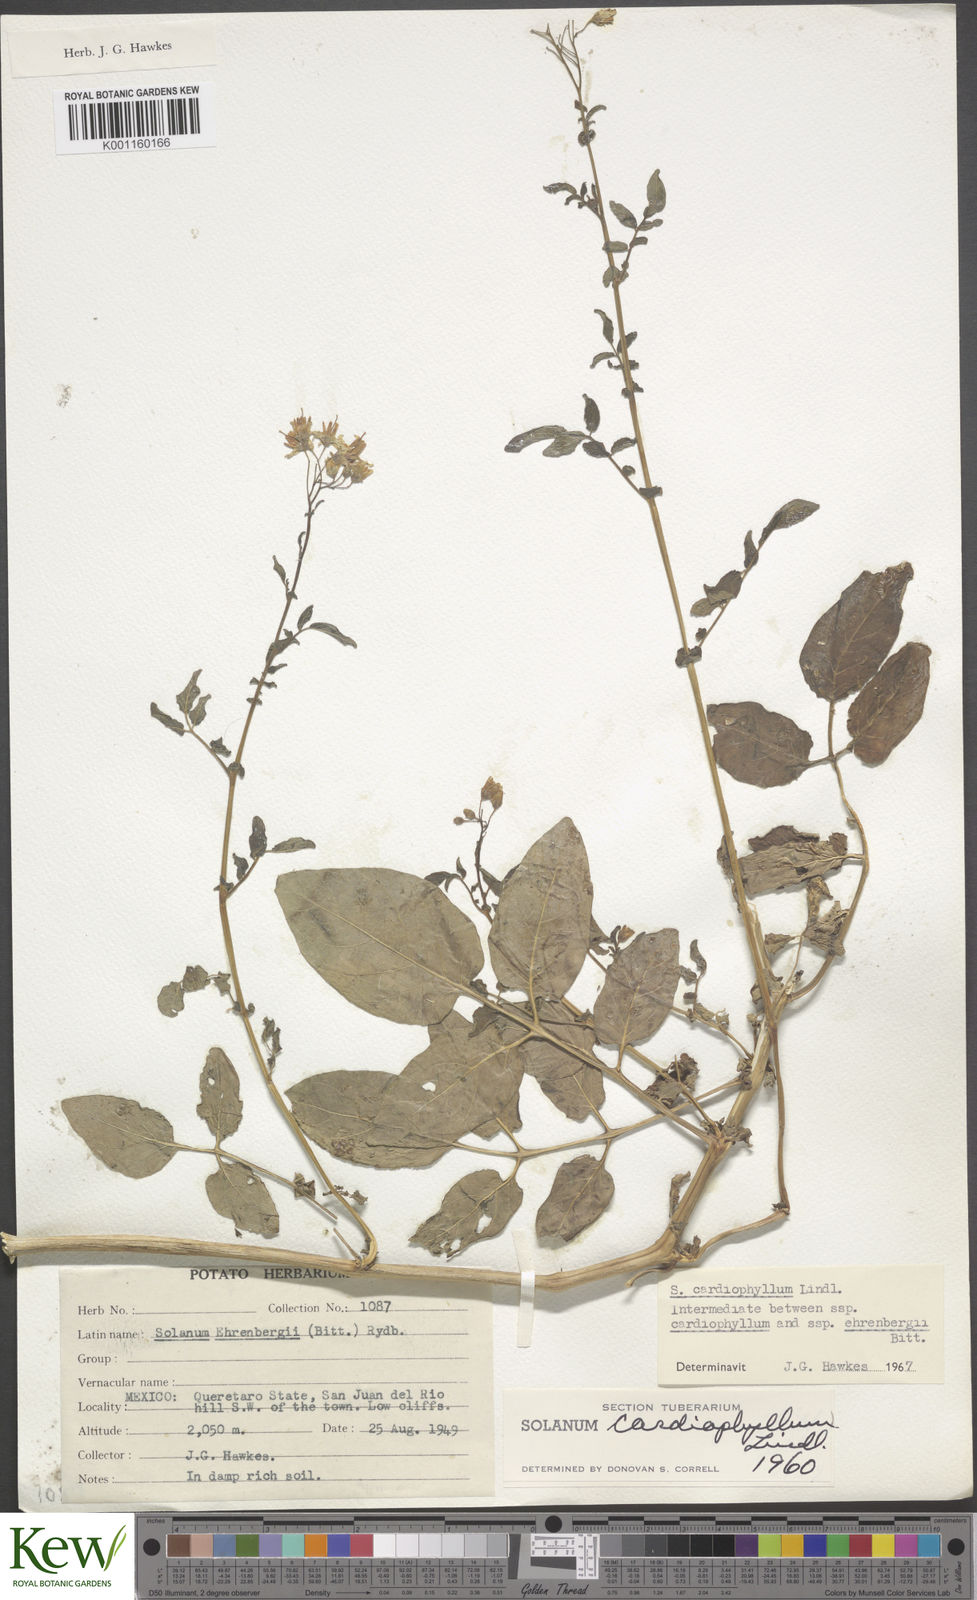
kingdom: Plantae
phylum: Tracheophyta
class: Magnoliopsida
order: Solanales
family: Solanaceae
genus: Solanum
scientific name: Solanum cardiophyllum
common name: Heartleaf horsenettle
